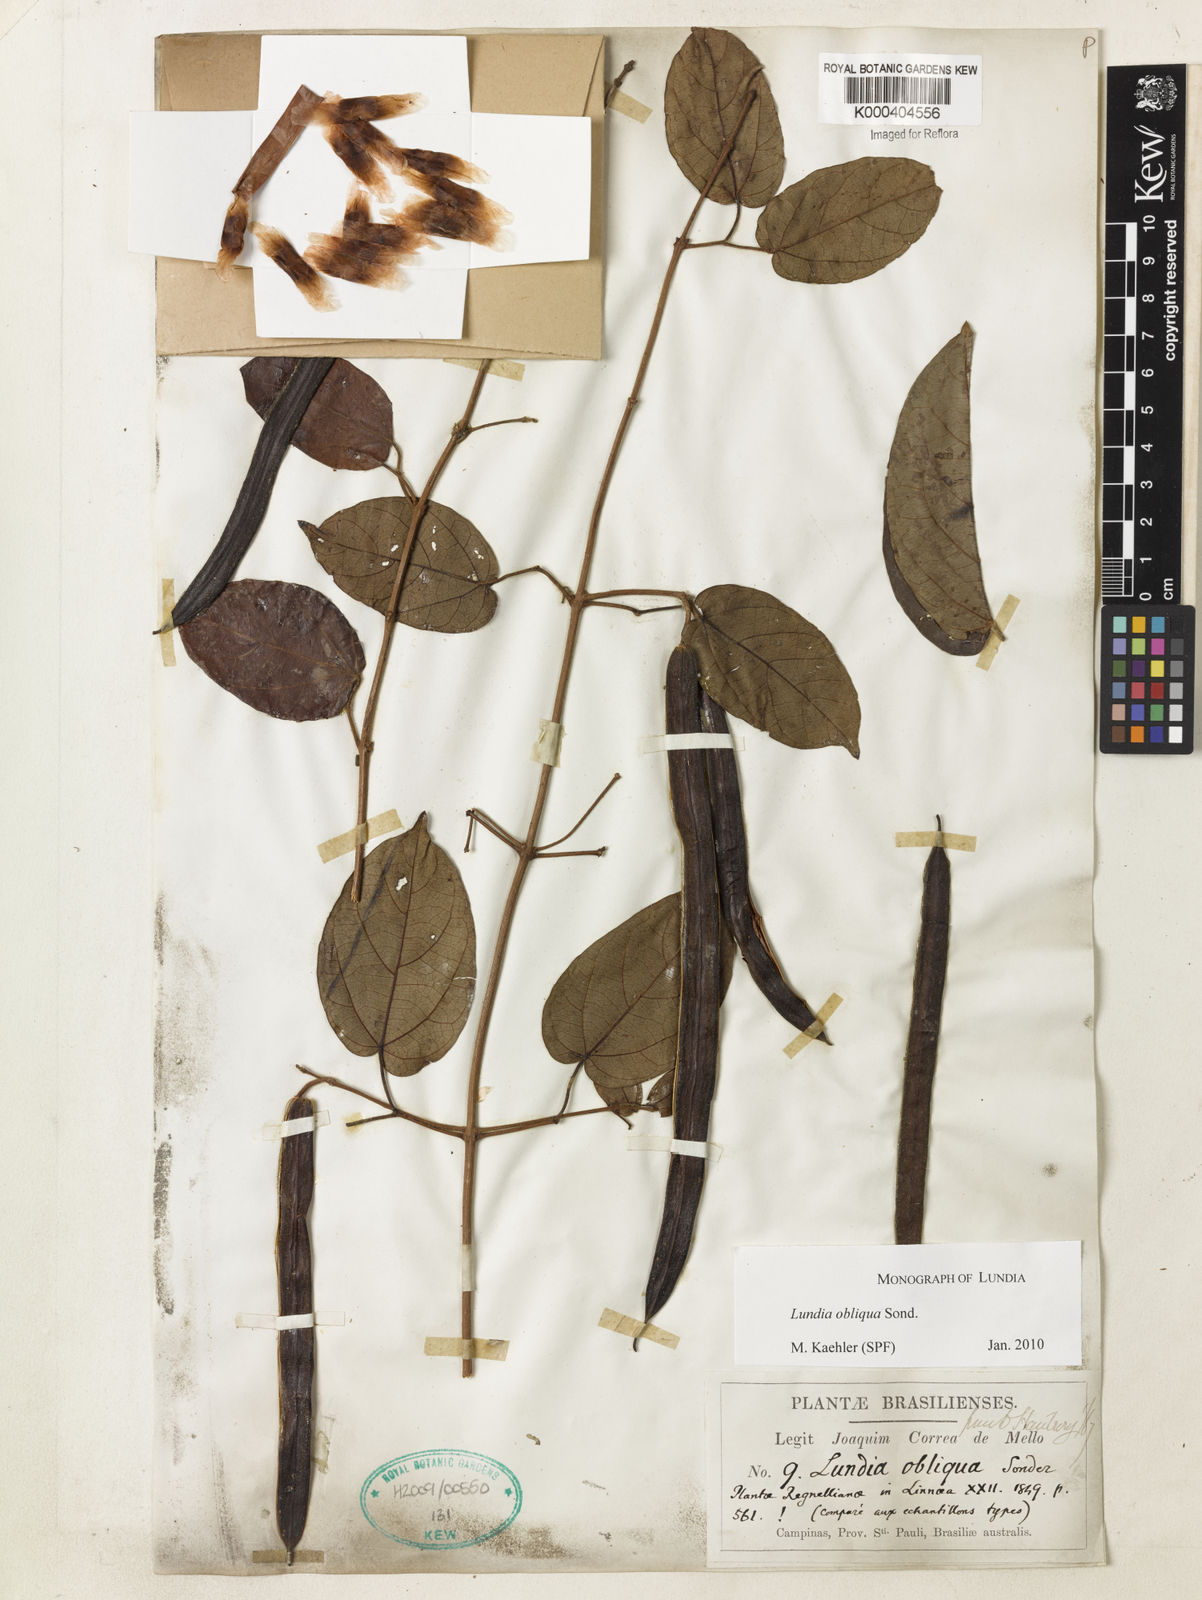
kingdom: Plantae
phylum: Tracheophyta
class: Magnoliopsida
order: Lamiales
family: Bignoniaceae
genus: Lundia
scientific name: Lundia densiflora
